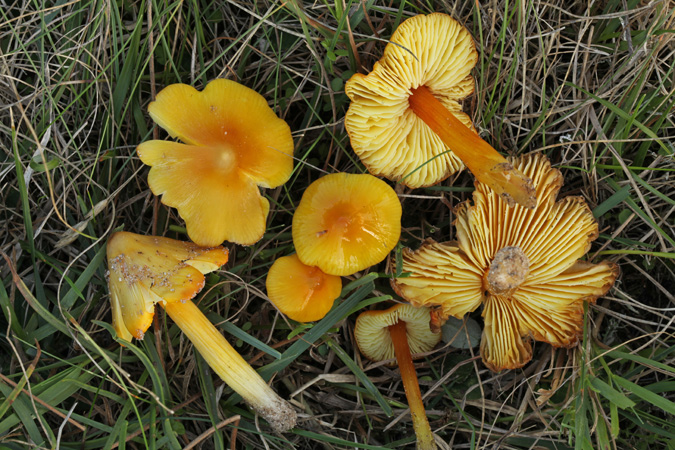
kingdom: Fungi
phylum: Basidiomycota
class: Agaricomycetes
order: Agaricales
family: Hygrophoraceae
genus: Hygrocybe
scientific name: Hygrocybe acutoconica
